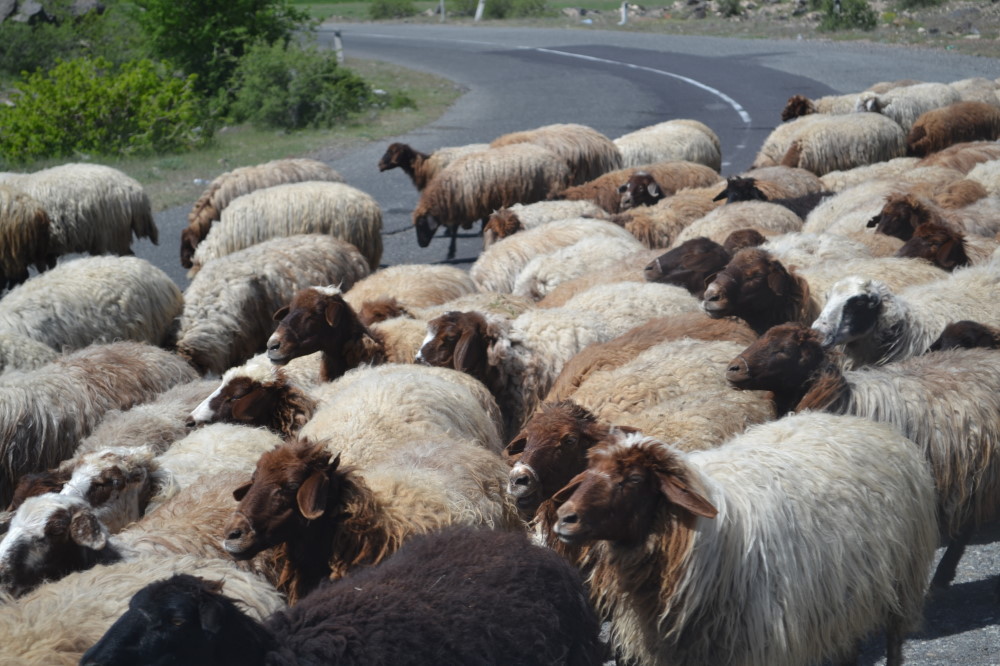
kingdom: Animalia
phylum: Chordata
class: Mammalia
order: Artiodactyla
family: Bovidae
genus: Ovis
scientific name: Ovis aries
